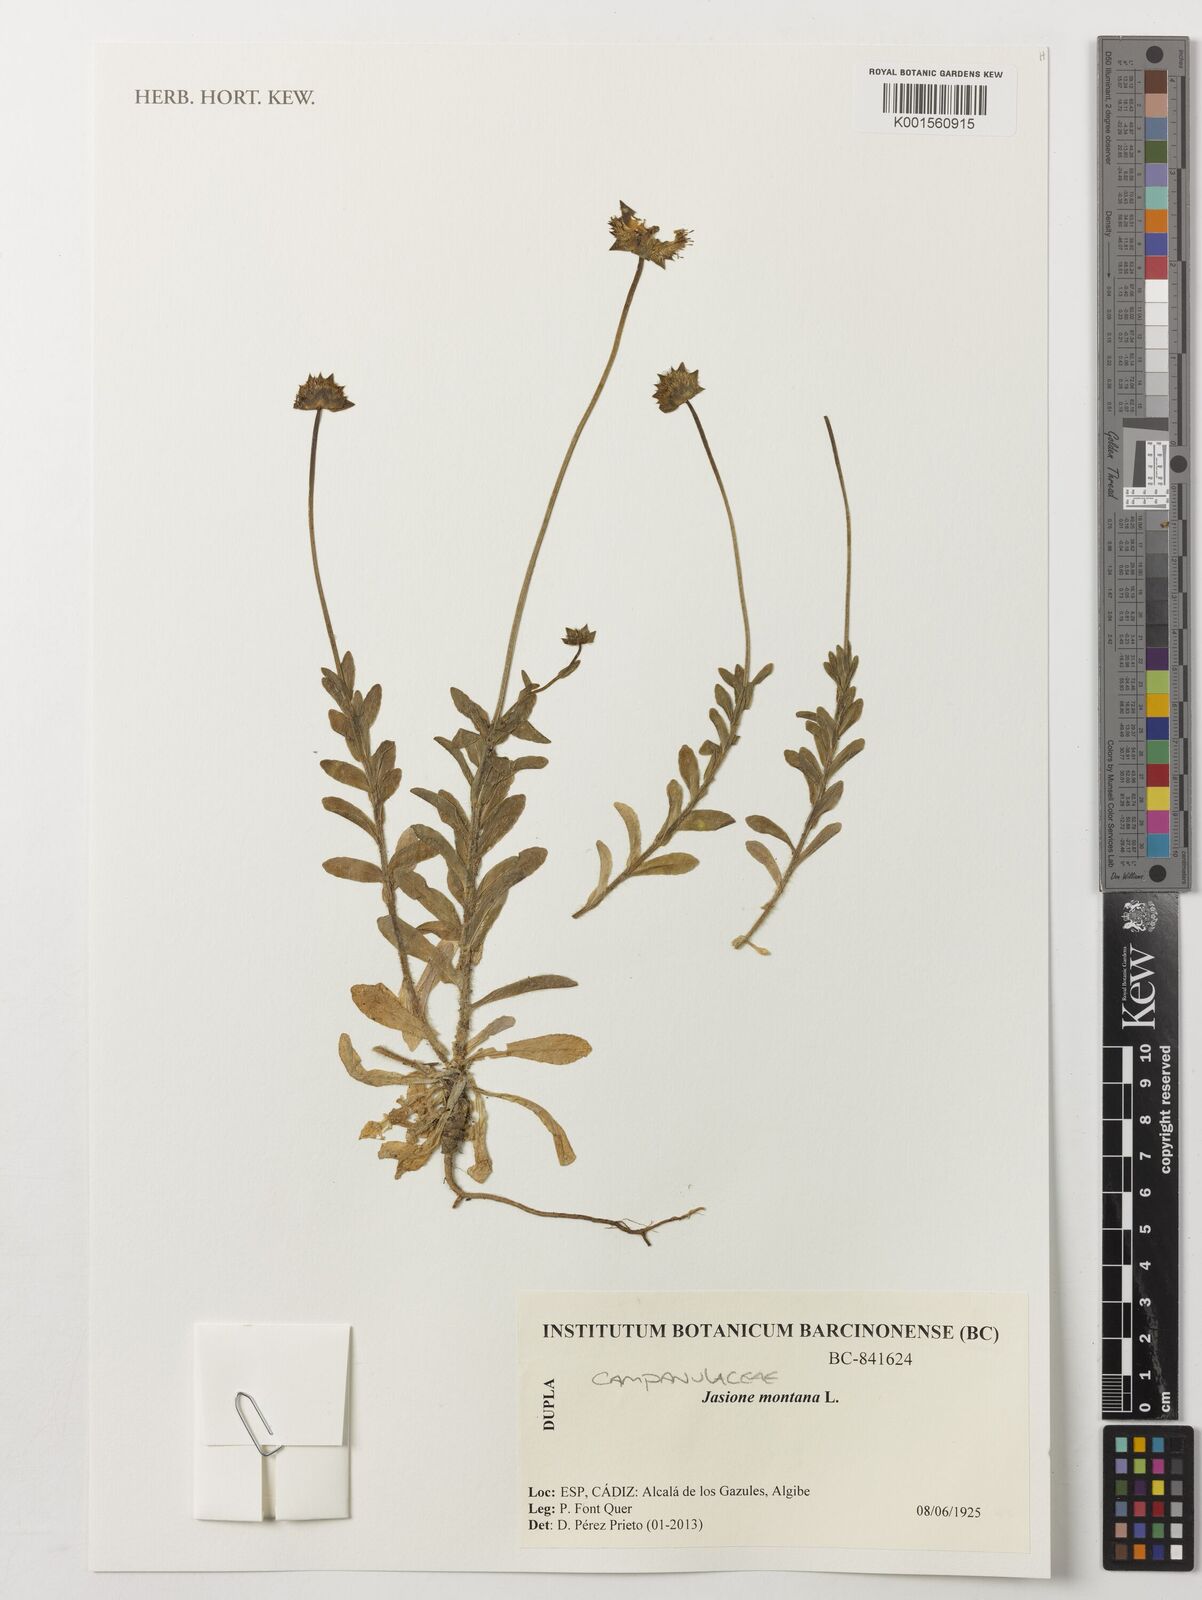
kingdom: Plantae
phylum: Tracheophyta
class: Magnoliopsida
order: Asterales
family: Campanulaceae
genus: Jasione
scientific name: Jasione montana
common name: Sheep's-bit
